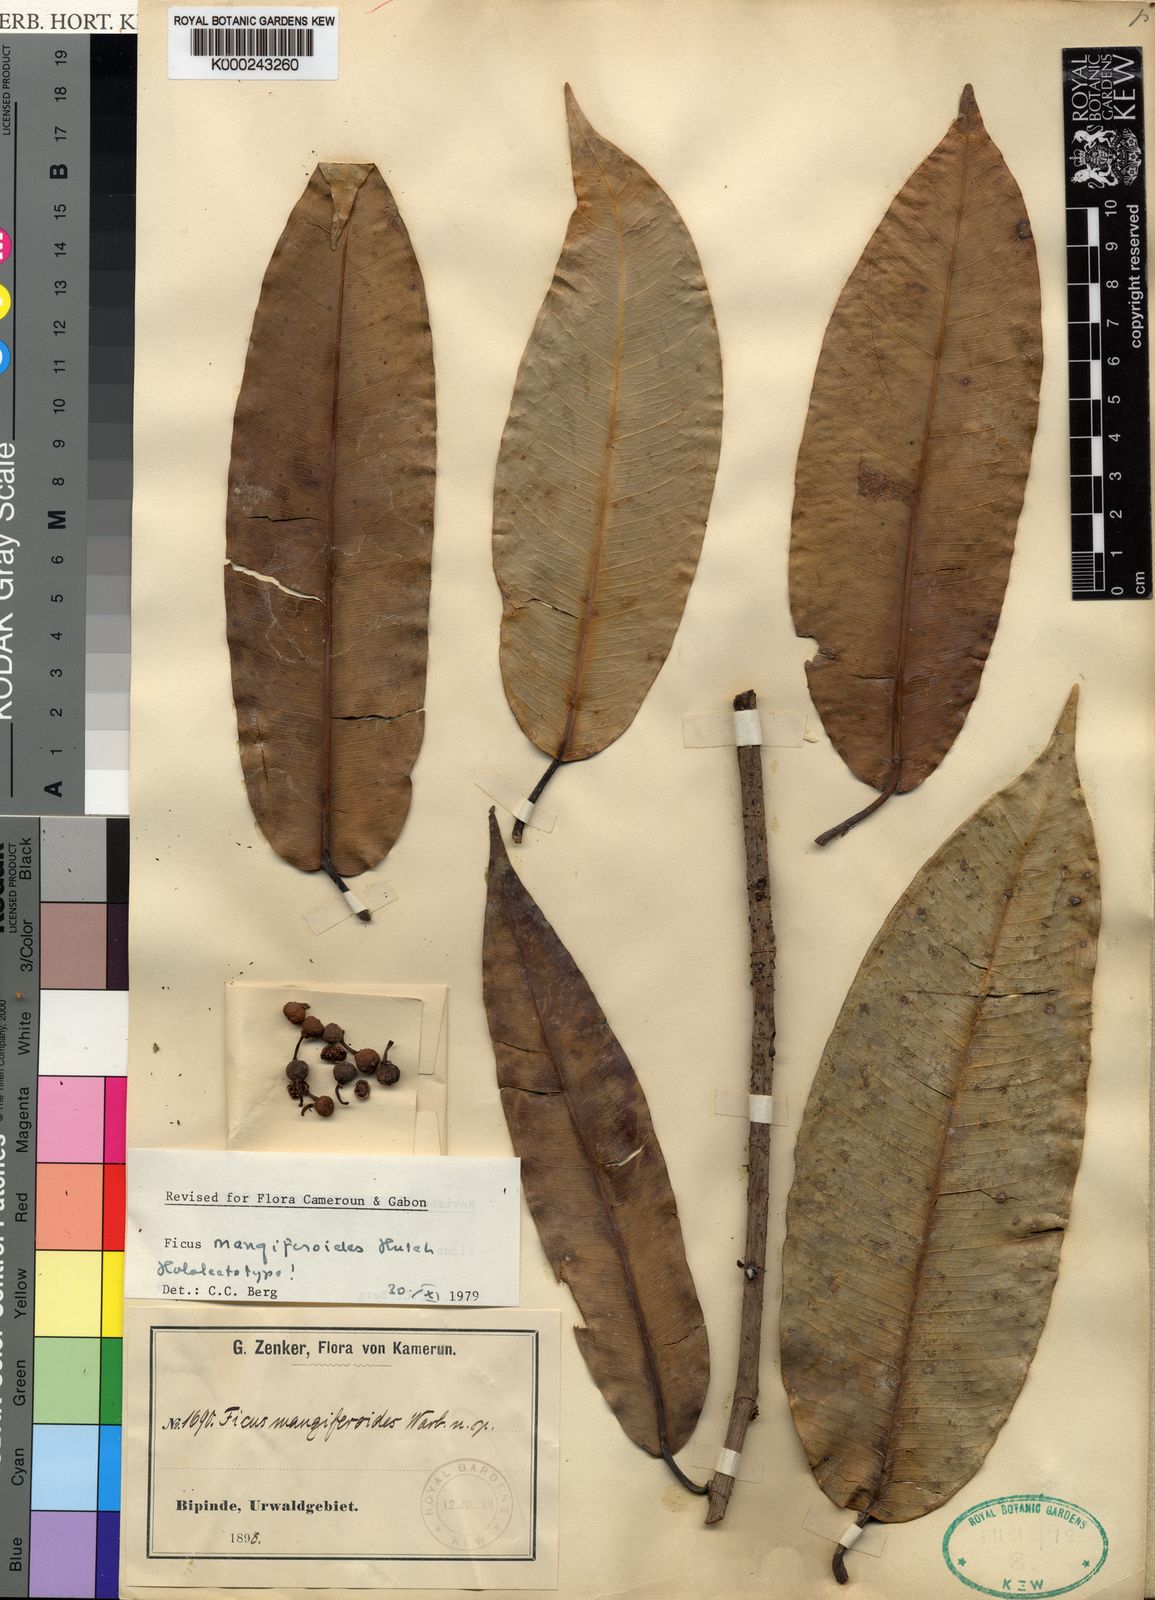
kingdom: Plantae
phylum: Tracheophyta
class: Magnoliopsida
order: Rosales
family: Moraceae
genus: Ficus
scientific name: Ficus pseudomangifera
